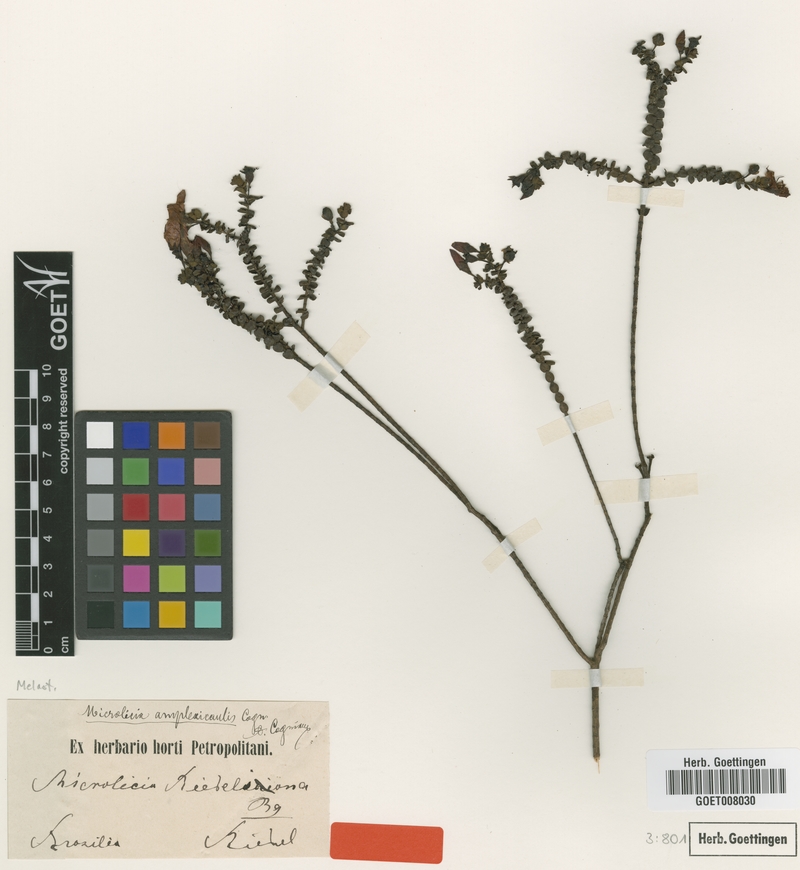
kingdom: Plantae
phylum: Tracheophyta
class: Magnoliopsida
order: Myrtales
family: Melastomataceae
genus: Microlicia
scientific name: Microlicia amplexicaulis
